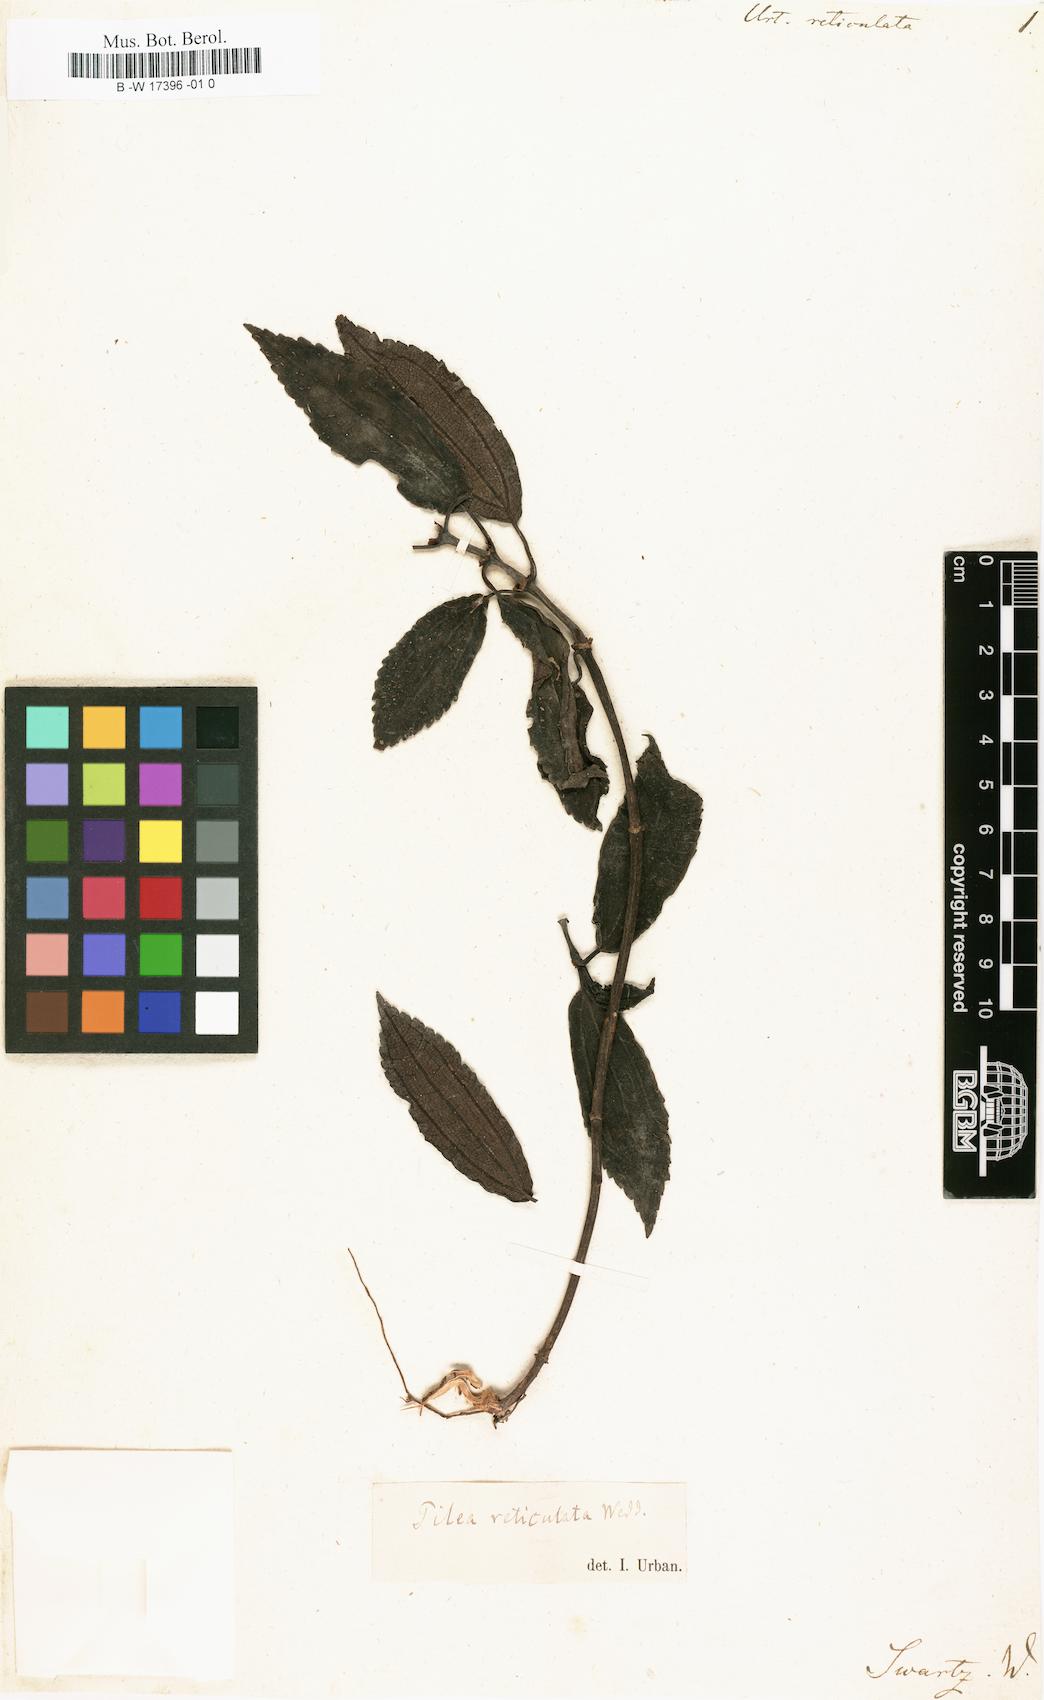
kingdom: Plantae
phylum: Tracheophyta
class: Magnoliopsida
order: Rosales
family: Urticaceae
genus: Pilea
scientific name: Pilea reticulata
